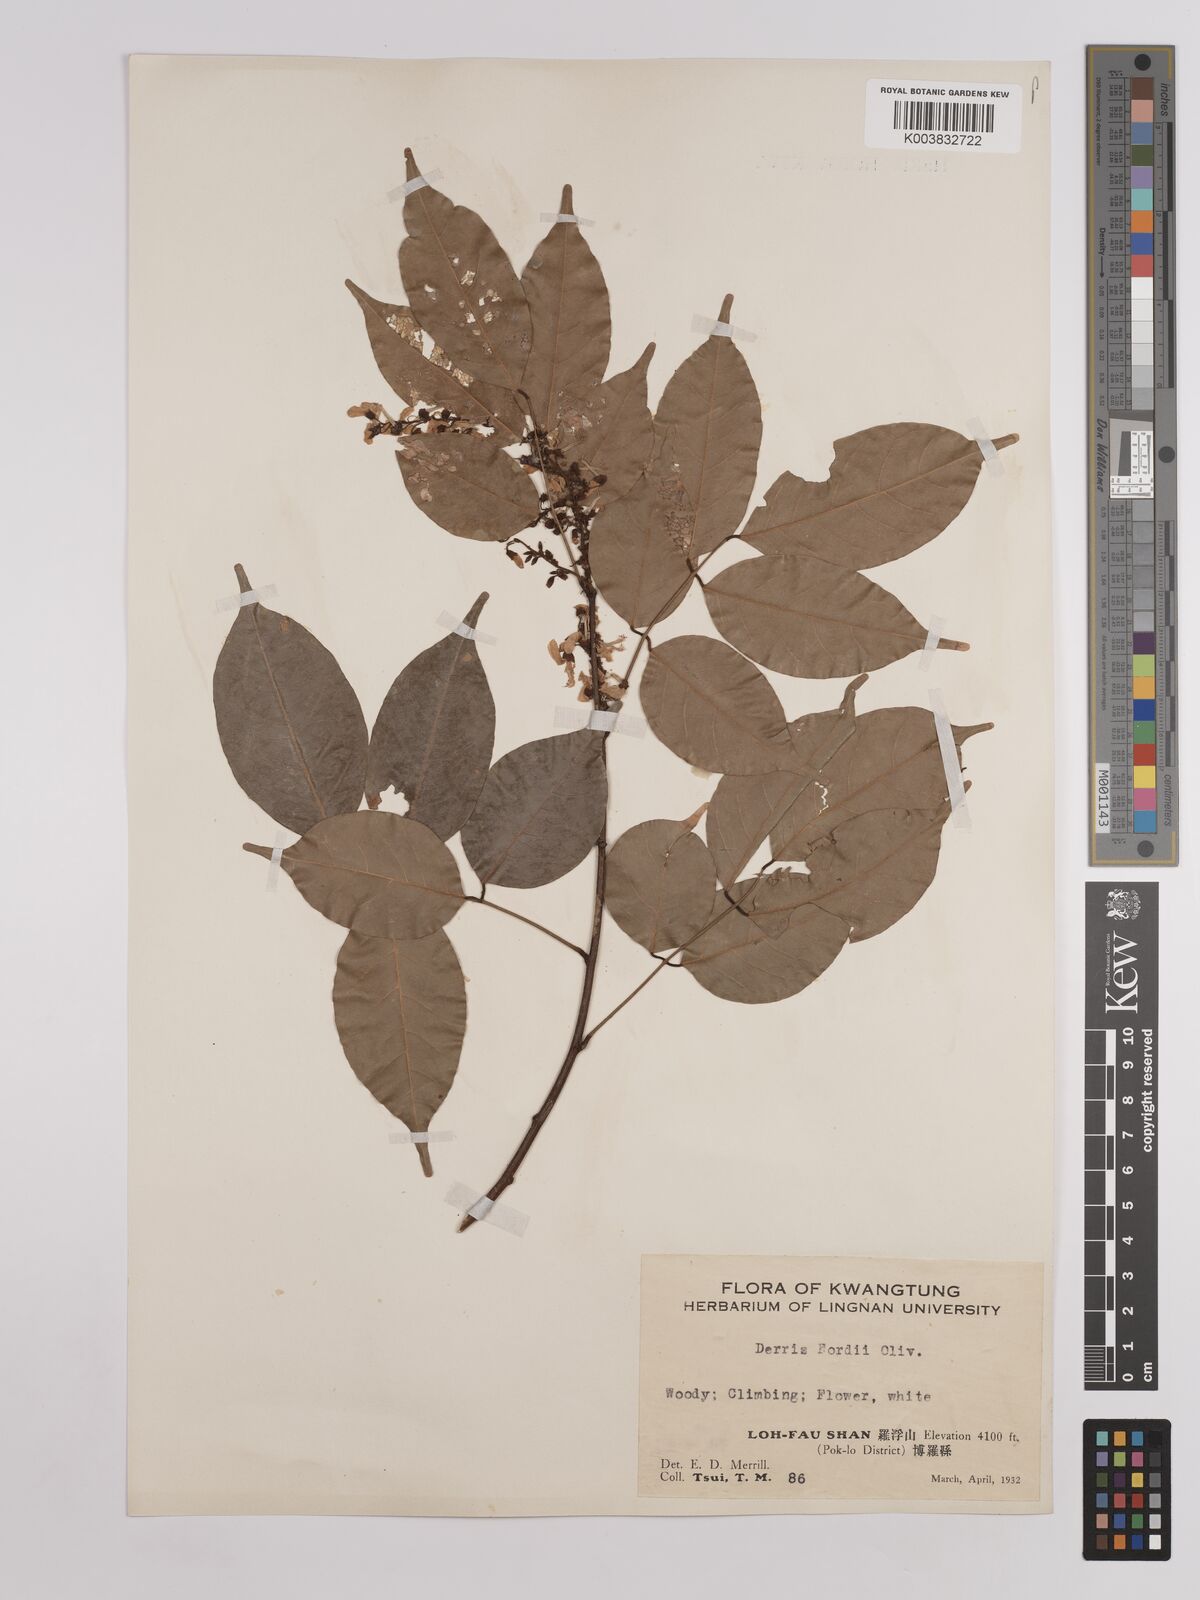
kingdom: Plantae
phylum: Tracheophyta
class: Magnoliopsida
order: Fabales
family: Fabaceae
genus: Derris
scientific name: Derris fordii
